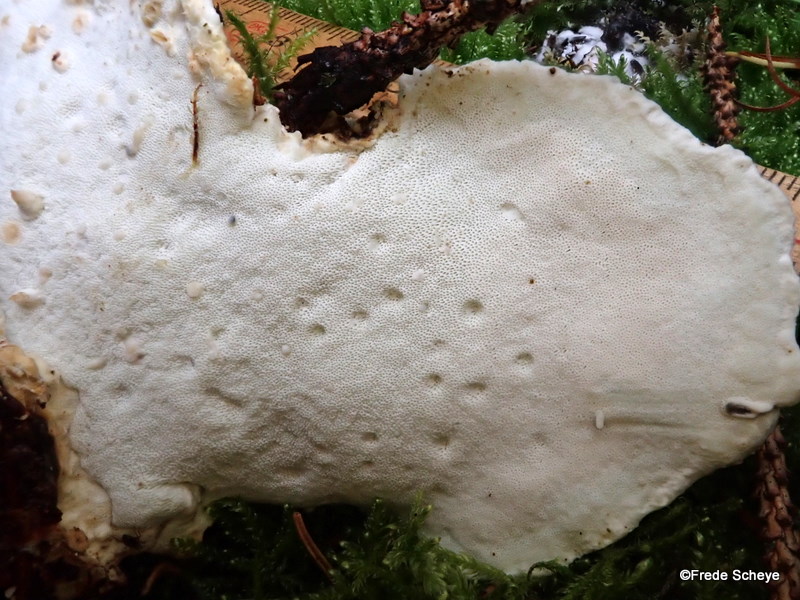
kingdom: Fungi
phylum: Basidiomycota
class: Agaricomycetes
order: Polyporales
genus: Calcipostia
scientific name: Calcipostia guttulata
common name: dråbe-kødporesvamp
